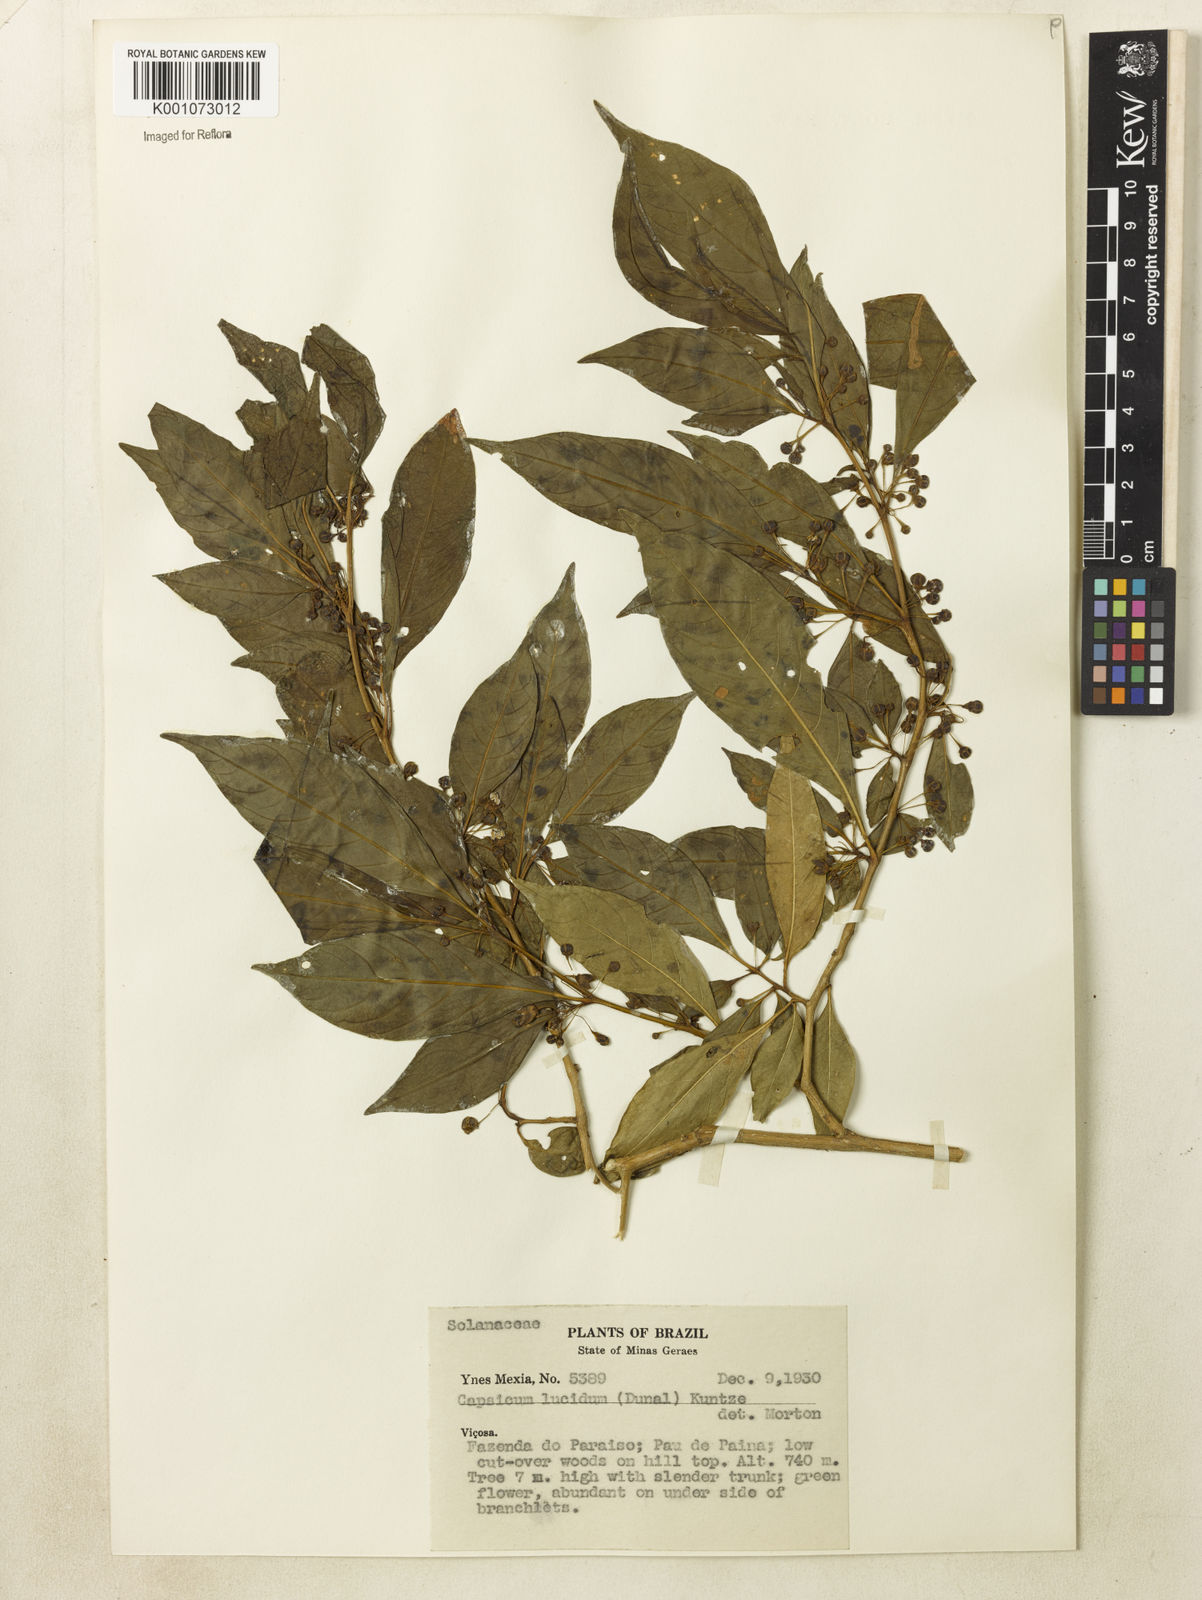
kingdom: Plantae
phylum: Tracheophyta
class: Magnoliopsida
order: Solanales
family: Solanaceae
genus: Athenaea
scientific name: Athenaea fasciculata
